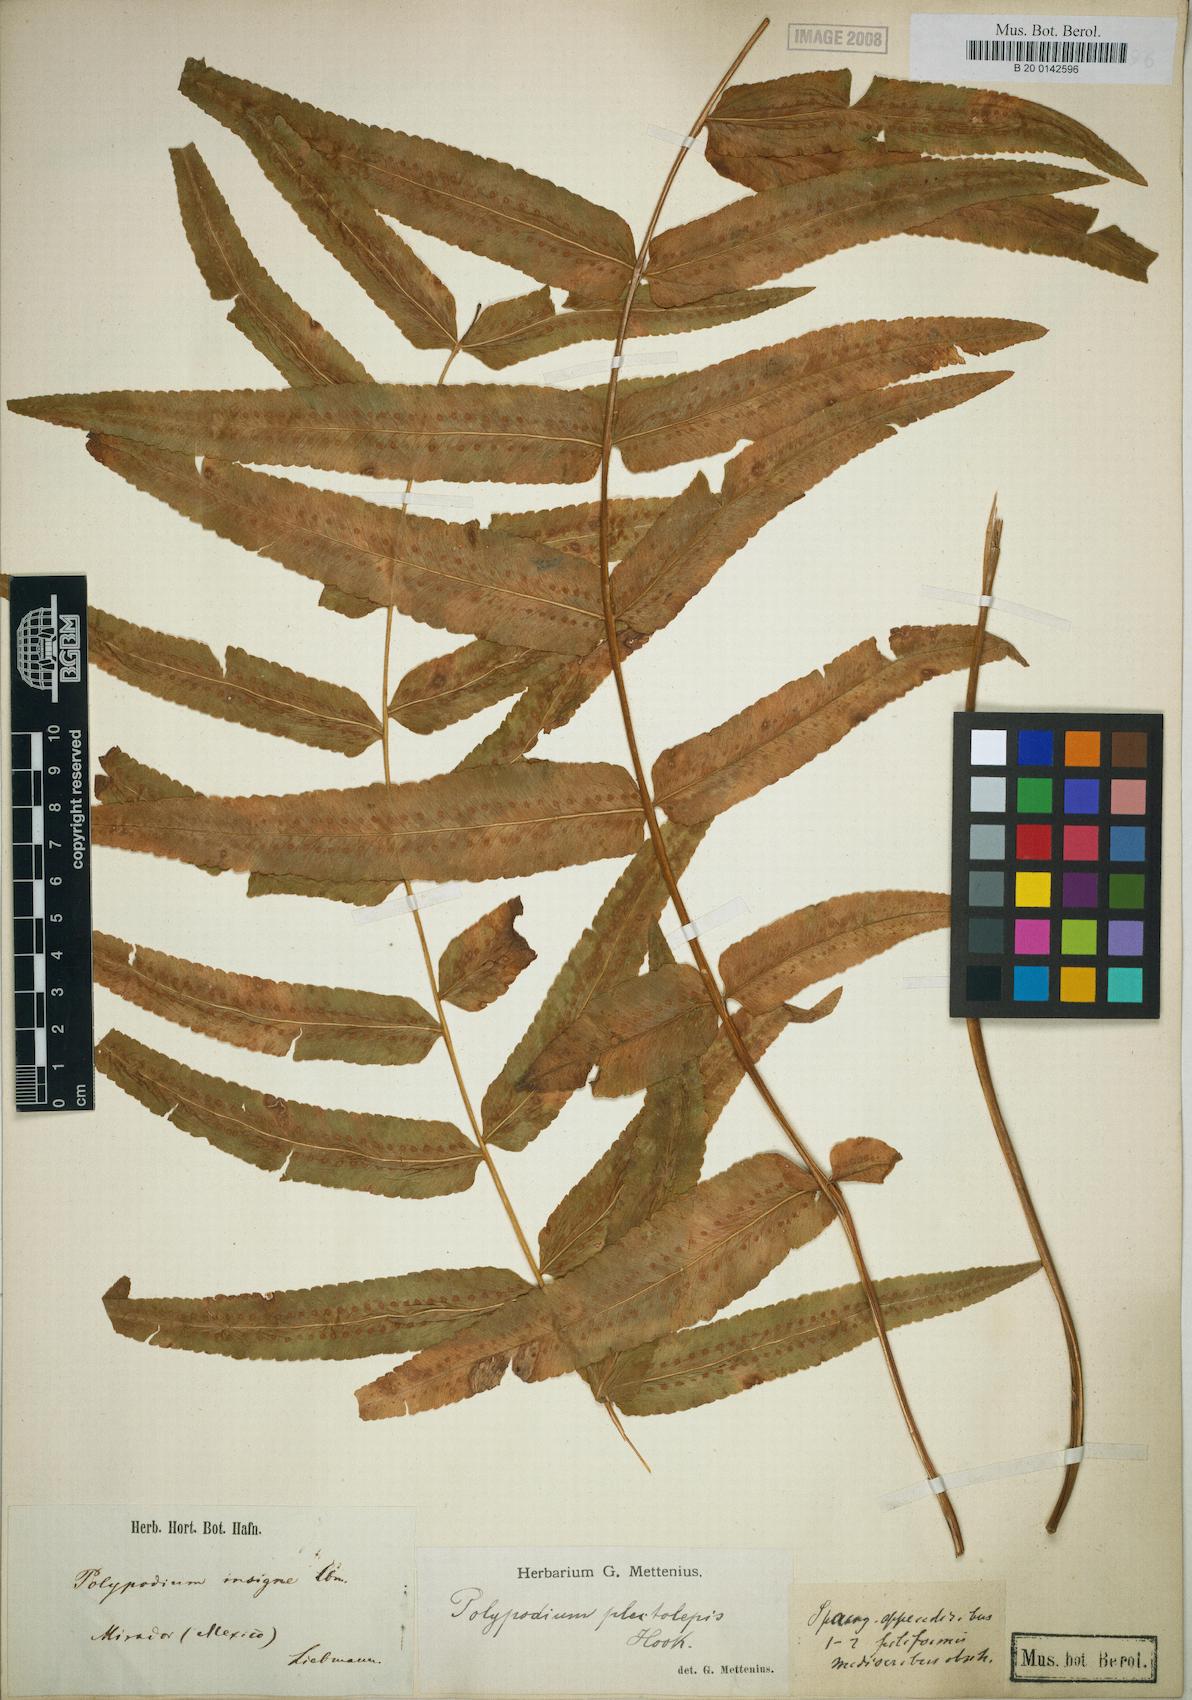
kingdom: Plantae
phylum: Tracheophyta
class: Polypodiopsida
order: Polypodiales
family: Polypodiaceae
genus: Polypodium
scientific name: Polypodium echinolepis
